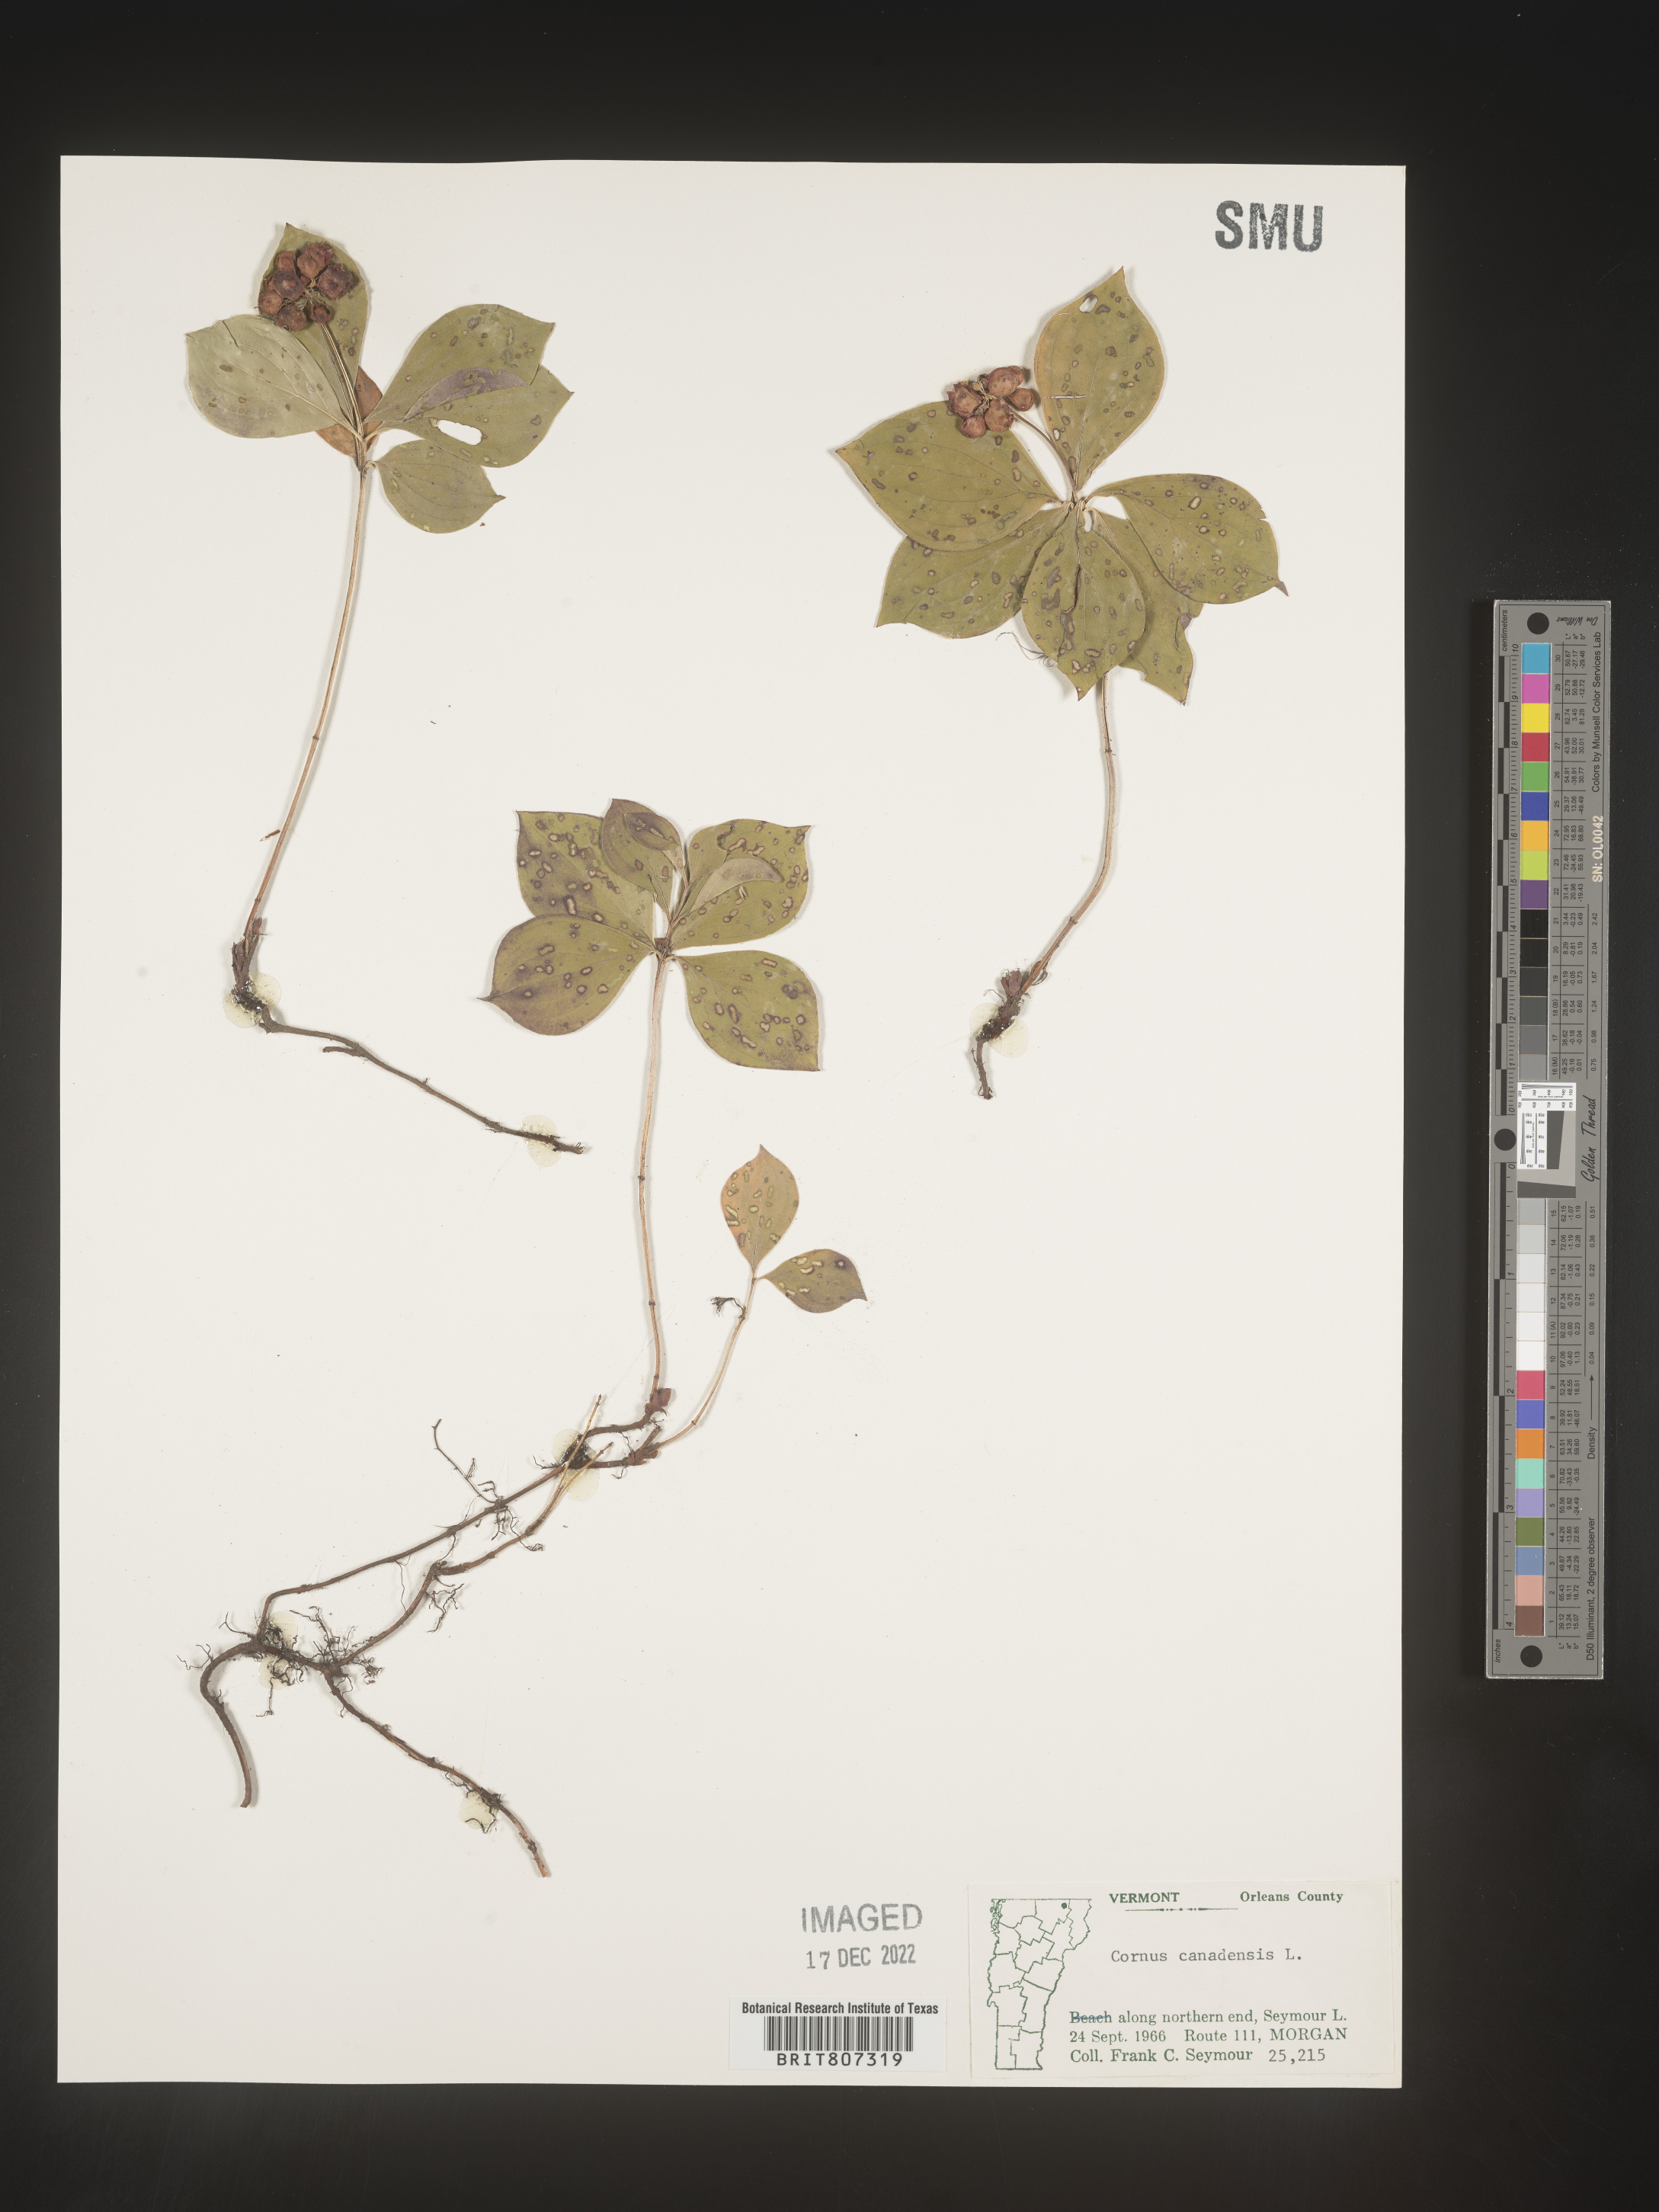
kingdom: Plantae
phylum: Tracheophyta
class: Magnoliopsida
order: Cornales
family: Cornaceae
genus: Cornus
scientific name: Cornus canadensis
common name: Creeping dogwood
